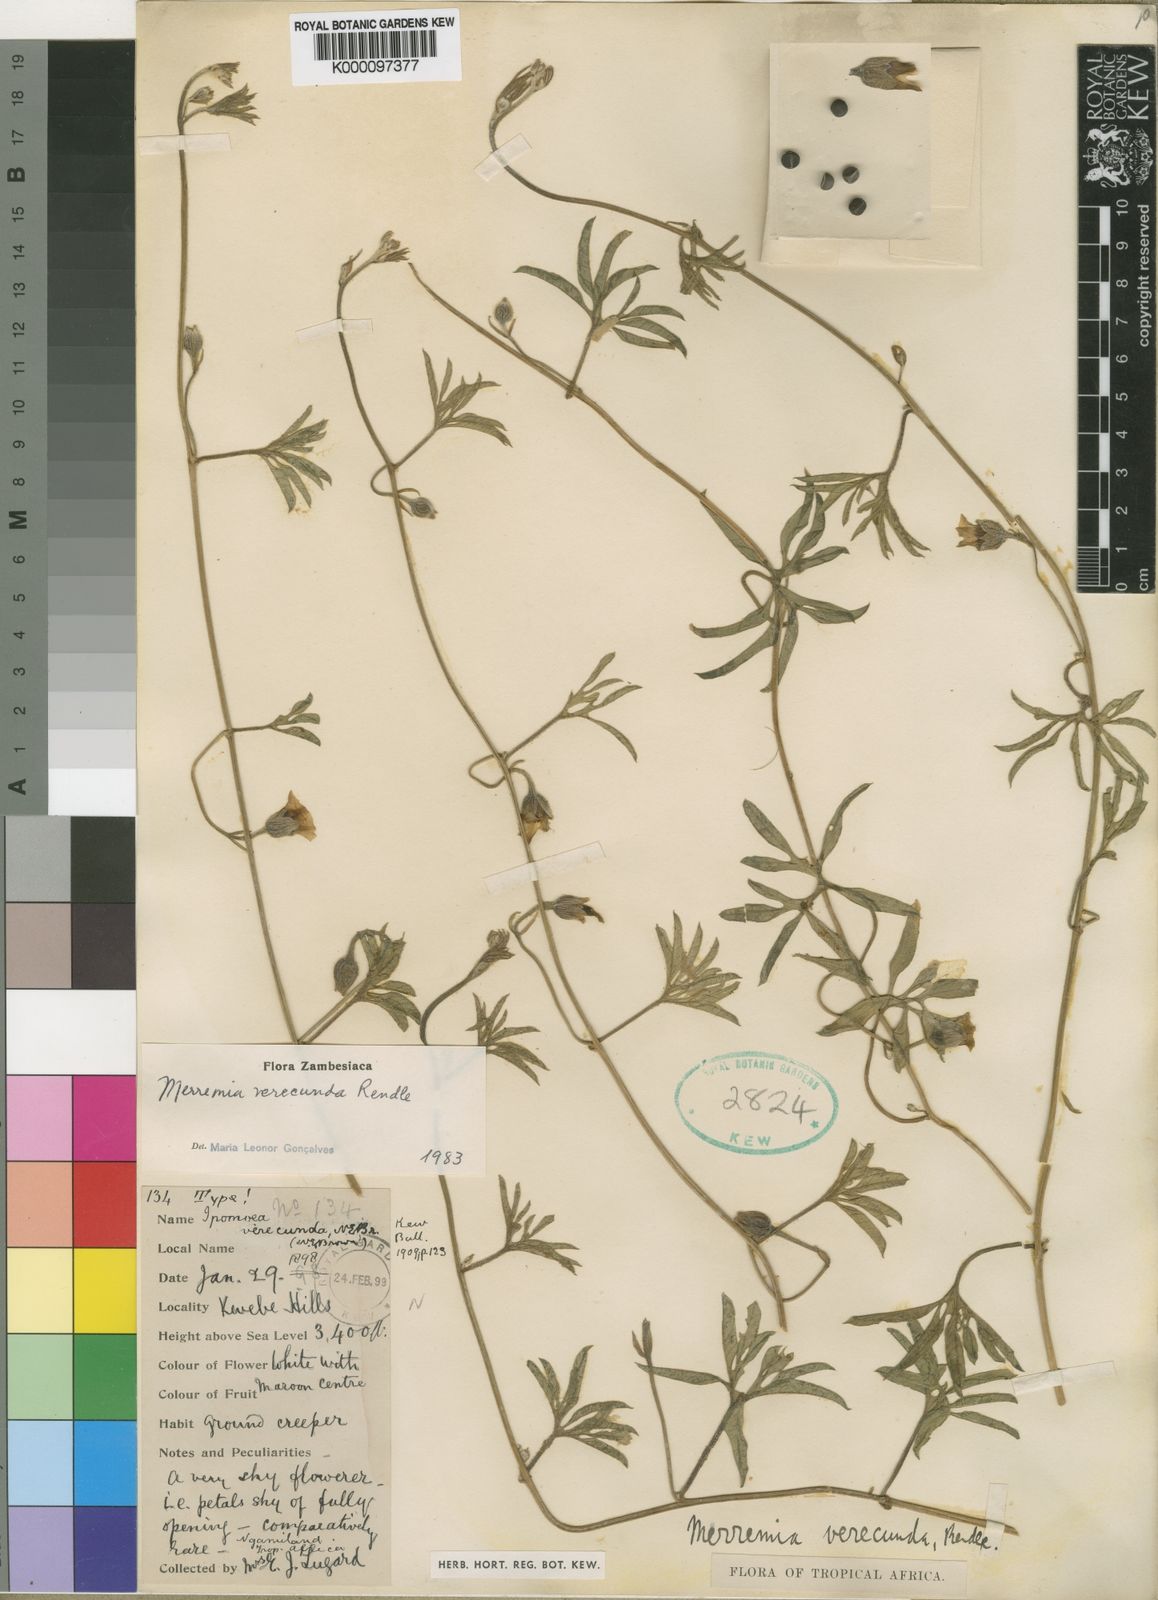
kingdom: Plantae
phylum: Tracheophyta
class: Magnoliopsida
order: Solanales
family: Convolvulaceae
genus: Merremia
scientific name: Merremia verecunda
